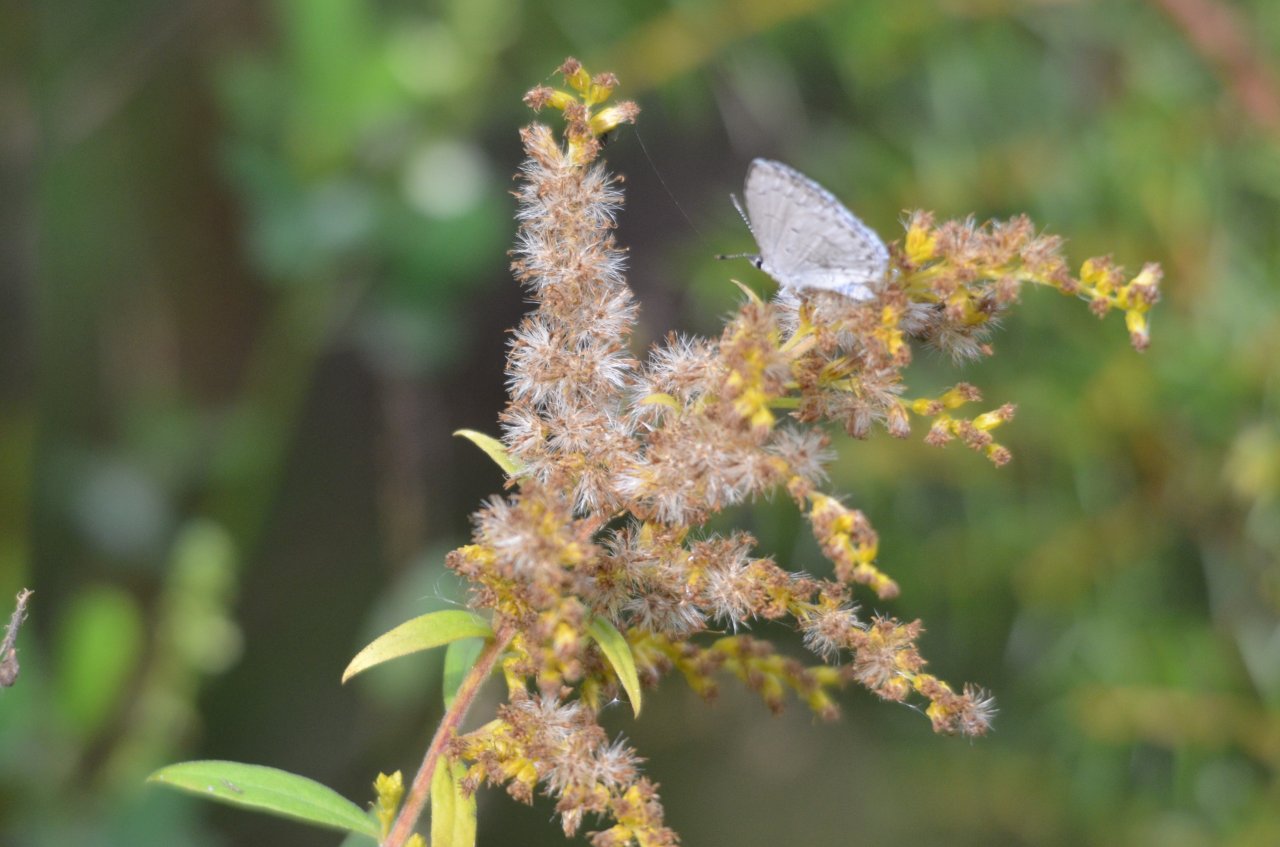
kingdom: Animalia
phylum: Arthropoda
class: Insecta
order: Lepidoptera
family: Lycaenidae
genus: Celastrina
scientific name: Celastrina
